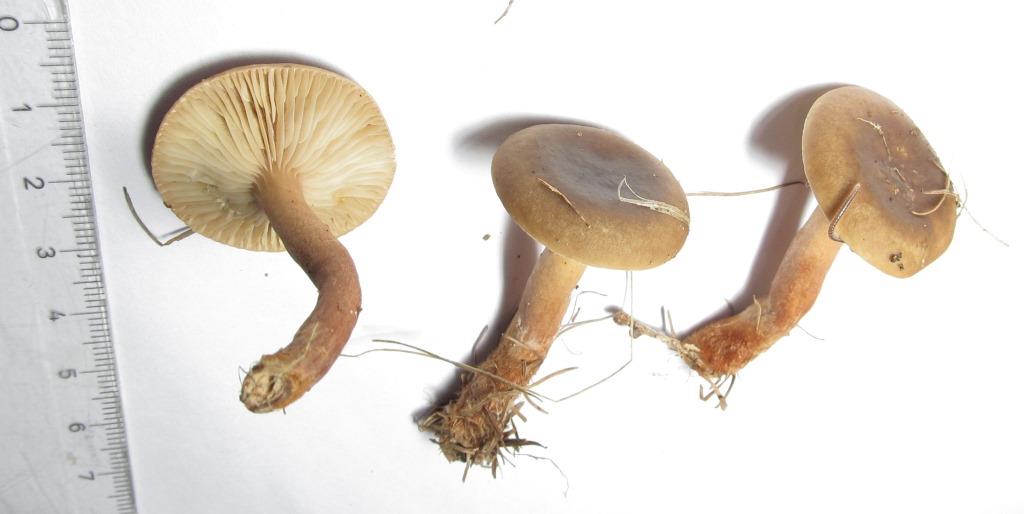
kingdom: Fungi
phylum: Basidiomycota
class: Agaricomycetes
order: Russulales
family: Russulaceae
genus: Lactarius
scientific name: Lactarius hepaticus
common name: leverbrun mælkehat
